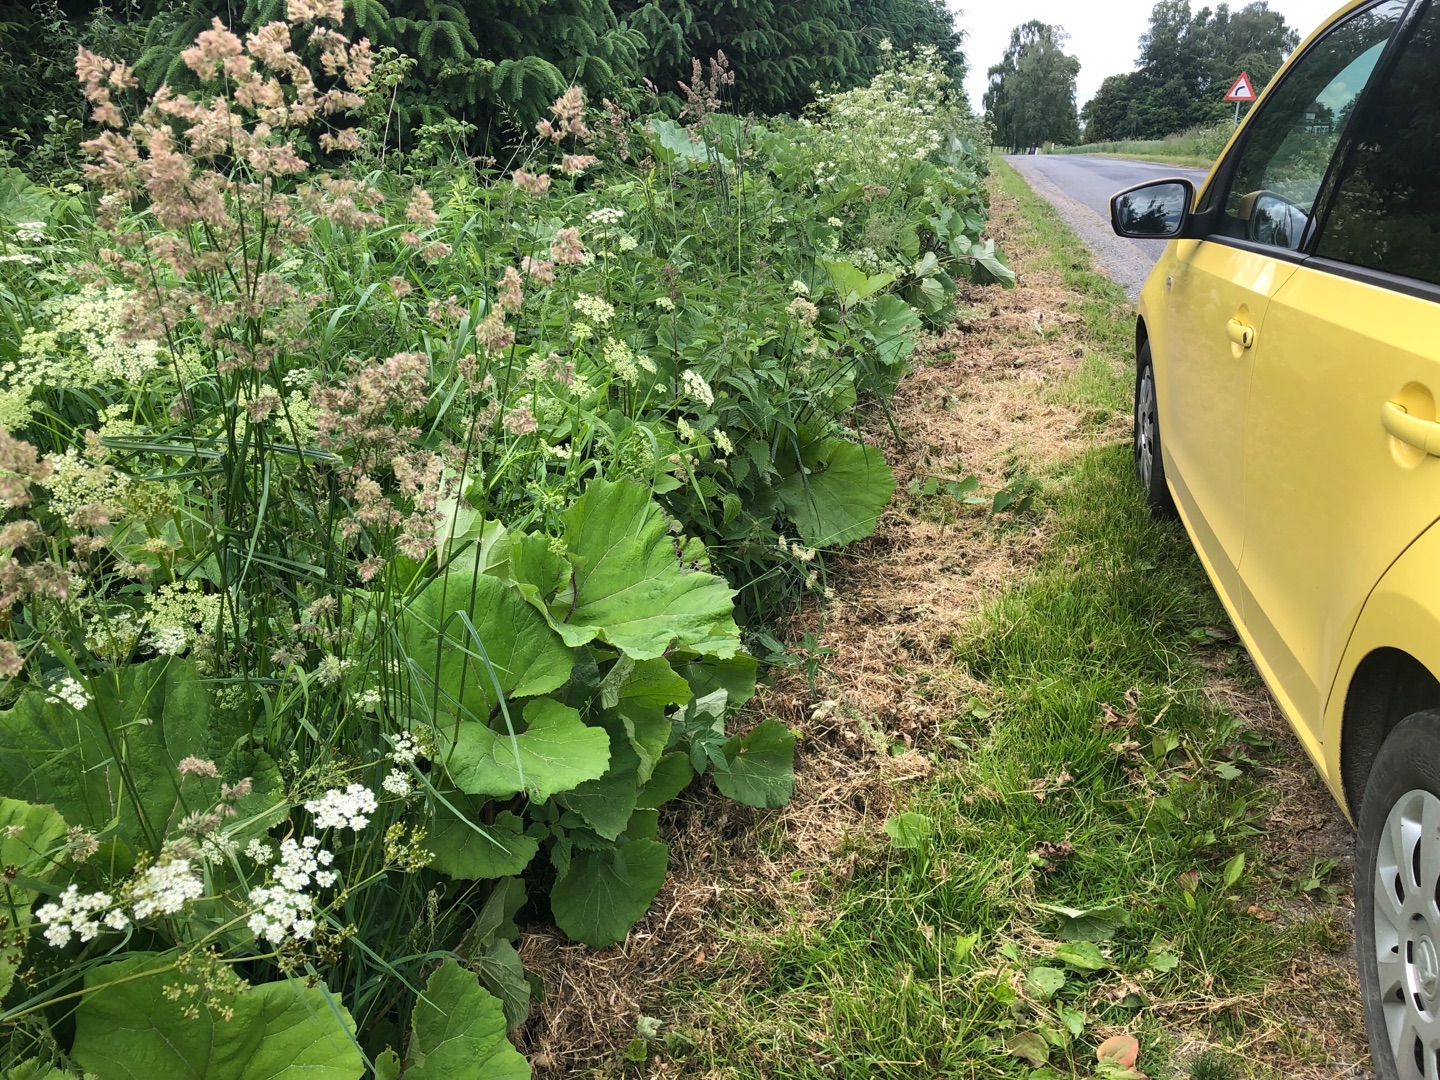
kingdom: Plantae
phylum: Tracheophyta
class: Magnoliopsida
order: Asterales
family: Asteraceae
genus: Petasites
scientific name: Petasites hybridus
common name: Rød hestehov
